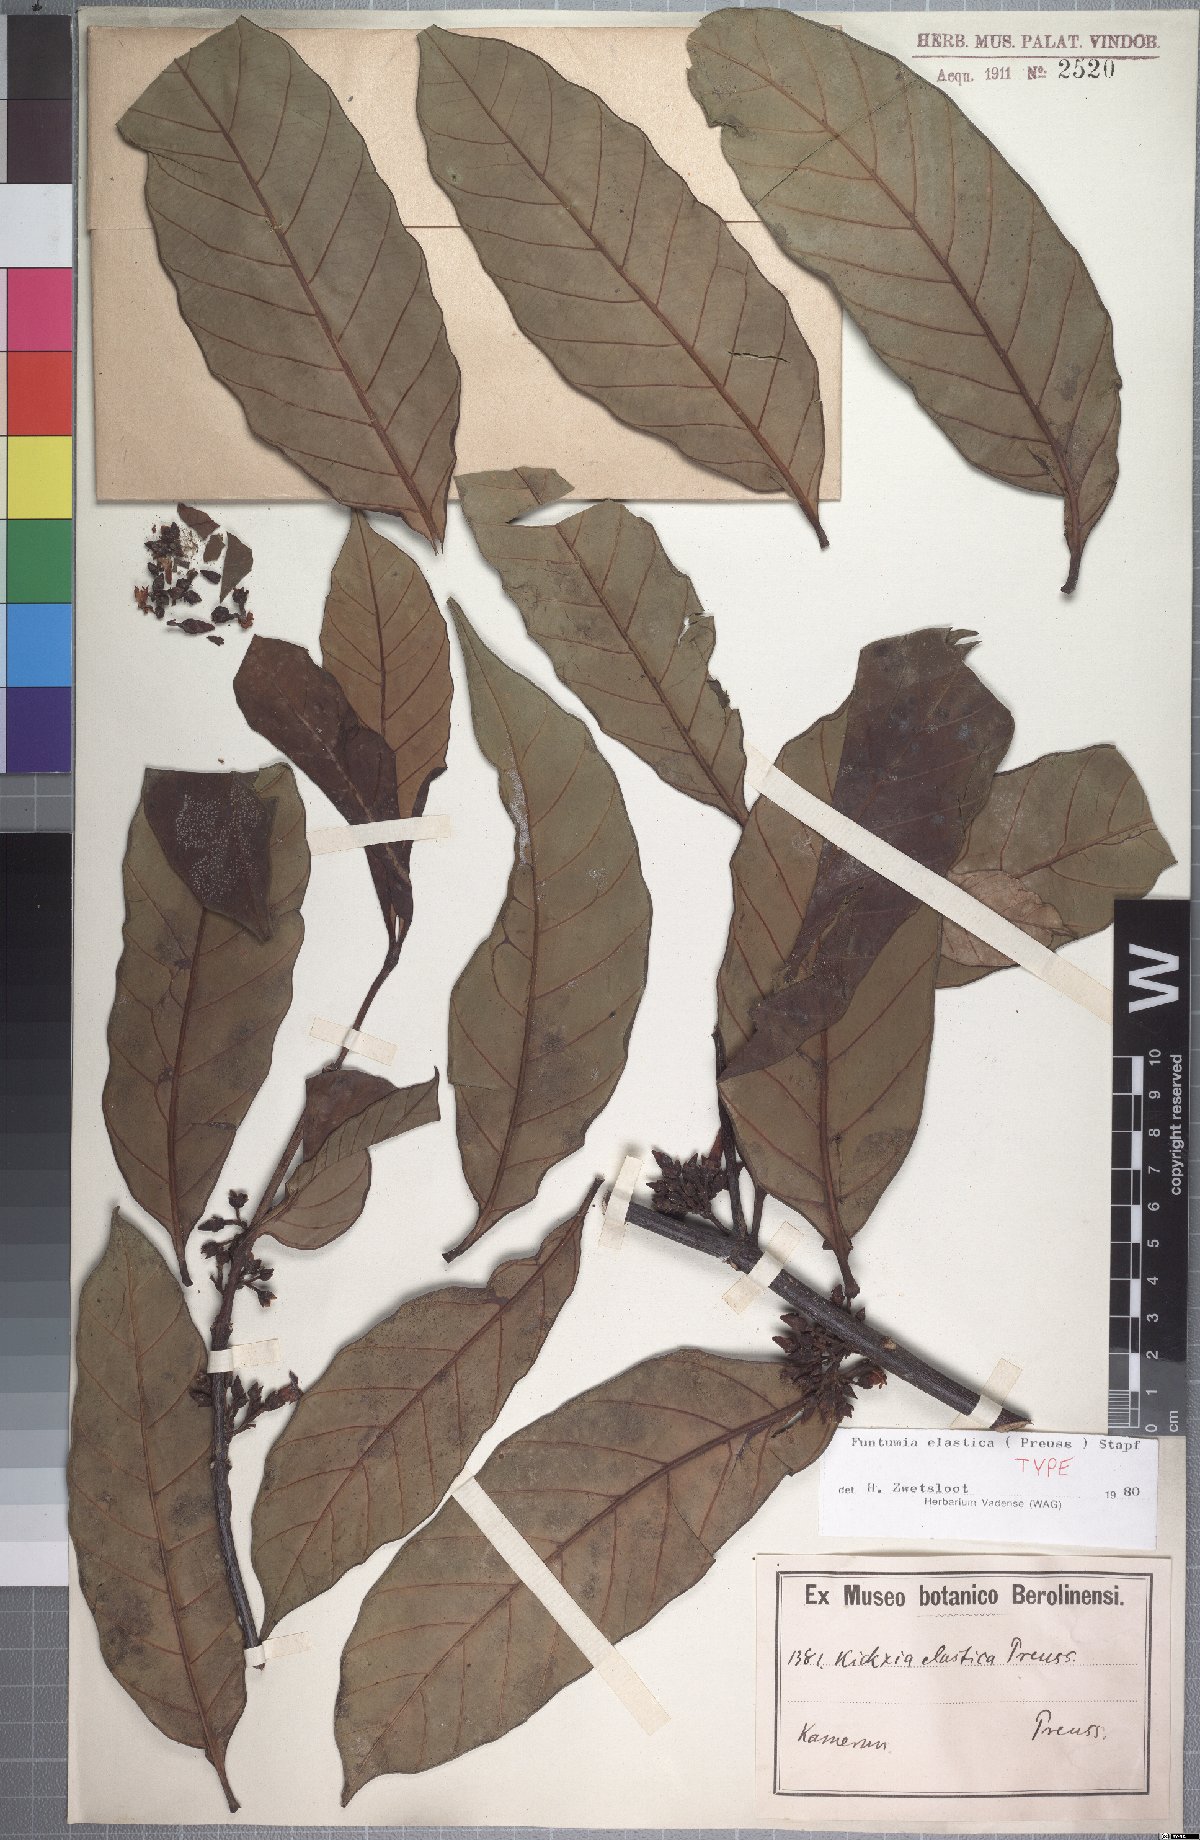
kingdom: Plantae
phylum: Tracheophyta
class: Magnoliopsida
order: Gentianales
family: Apocynaceae
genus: Funtumia
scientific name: Funtumia elastica
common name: Silkrubber
